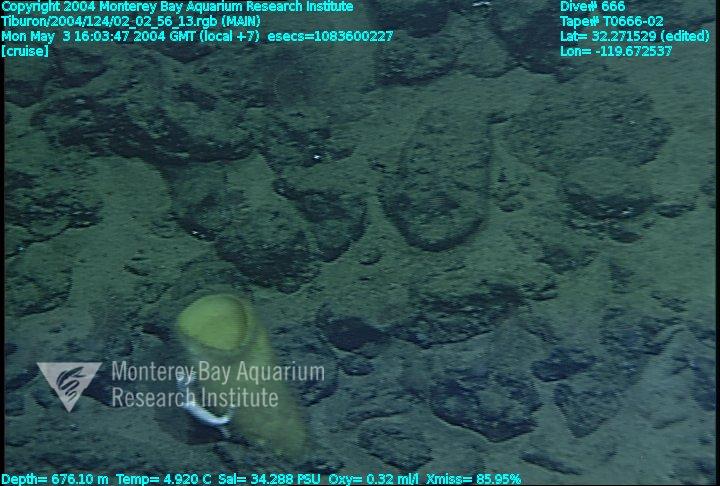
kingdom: Animalia
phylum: Porifera
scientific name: Porifera
